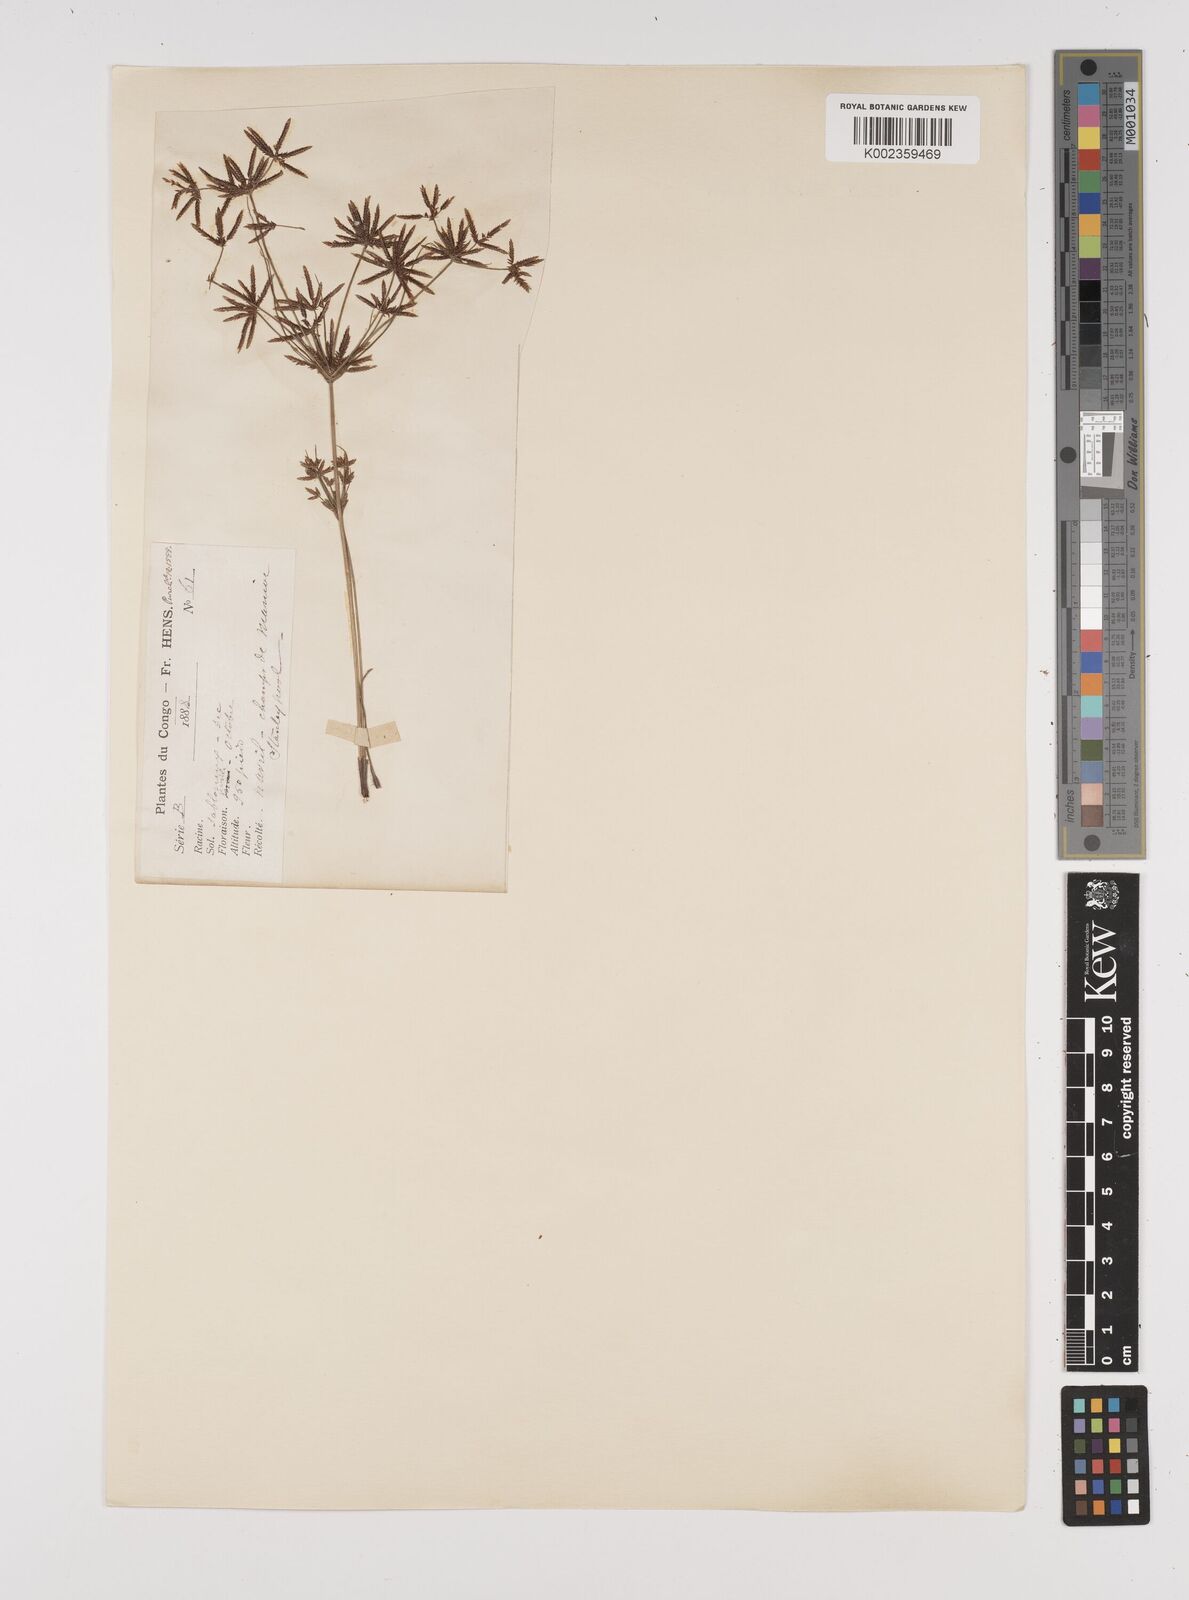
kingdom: Plantae
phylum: Tracheophyta
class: Liliopsida
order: Poales
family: Cyperaceae
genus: Cyperus
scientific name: Cyperus amabilis
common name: Foothill flat sedge
